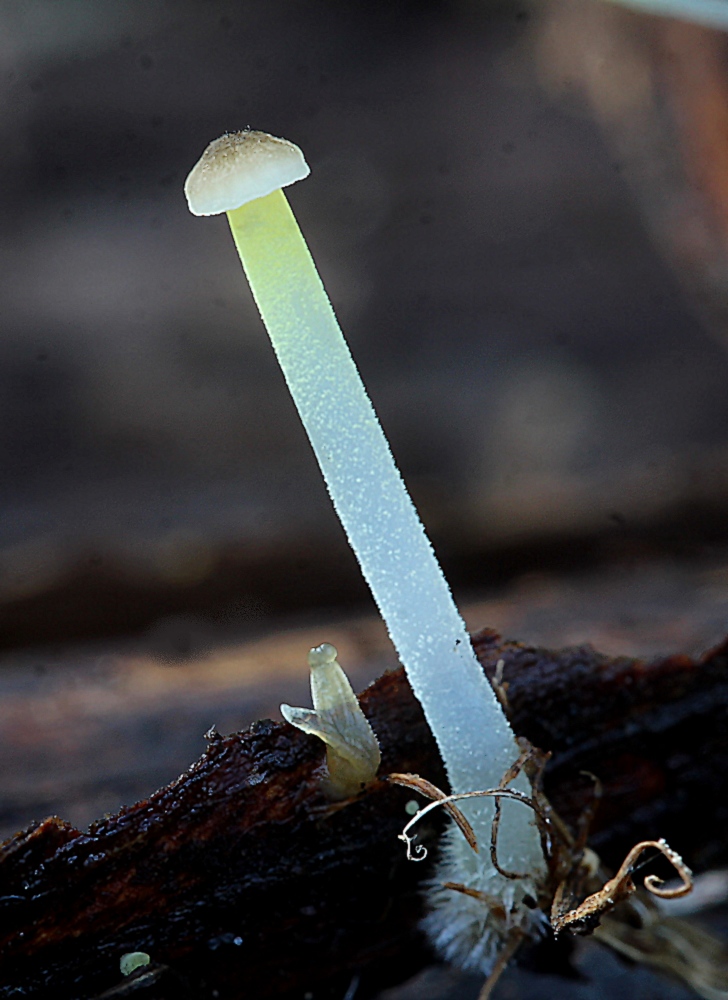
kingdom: Fungi
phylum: Basidiomycota
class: Agaricomycetes
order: Agaricales
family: Porotheleaceae
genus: Phloeomana
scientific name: Phloeomana speirea
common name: kvist-huesvamp
